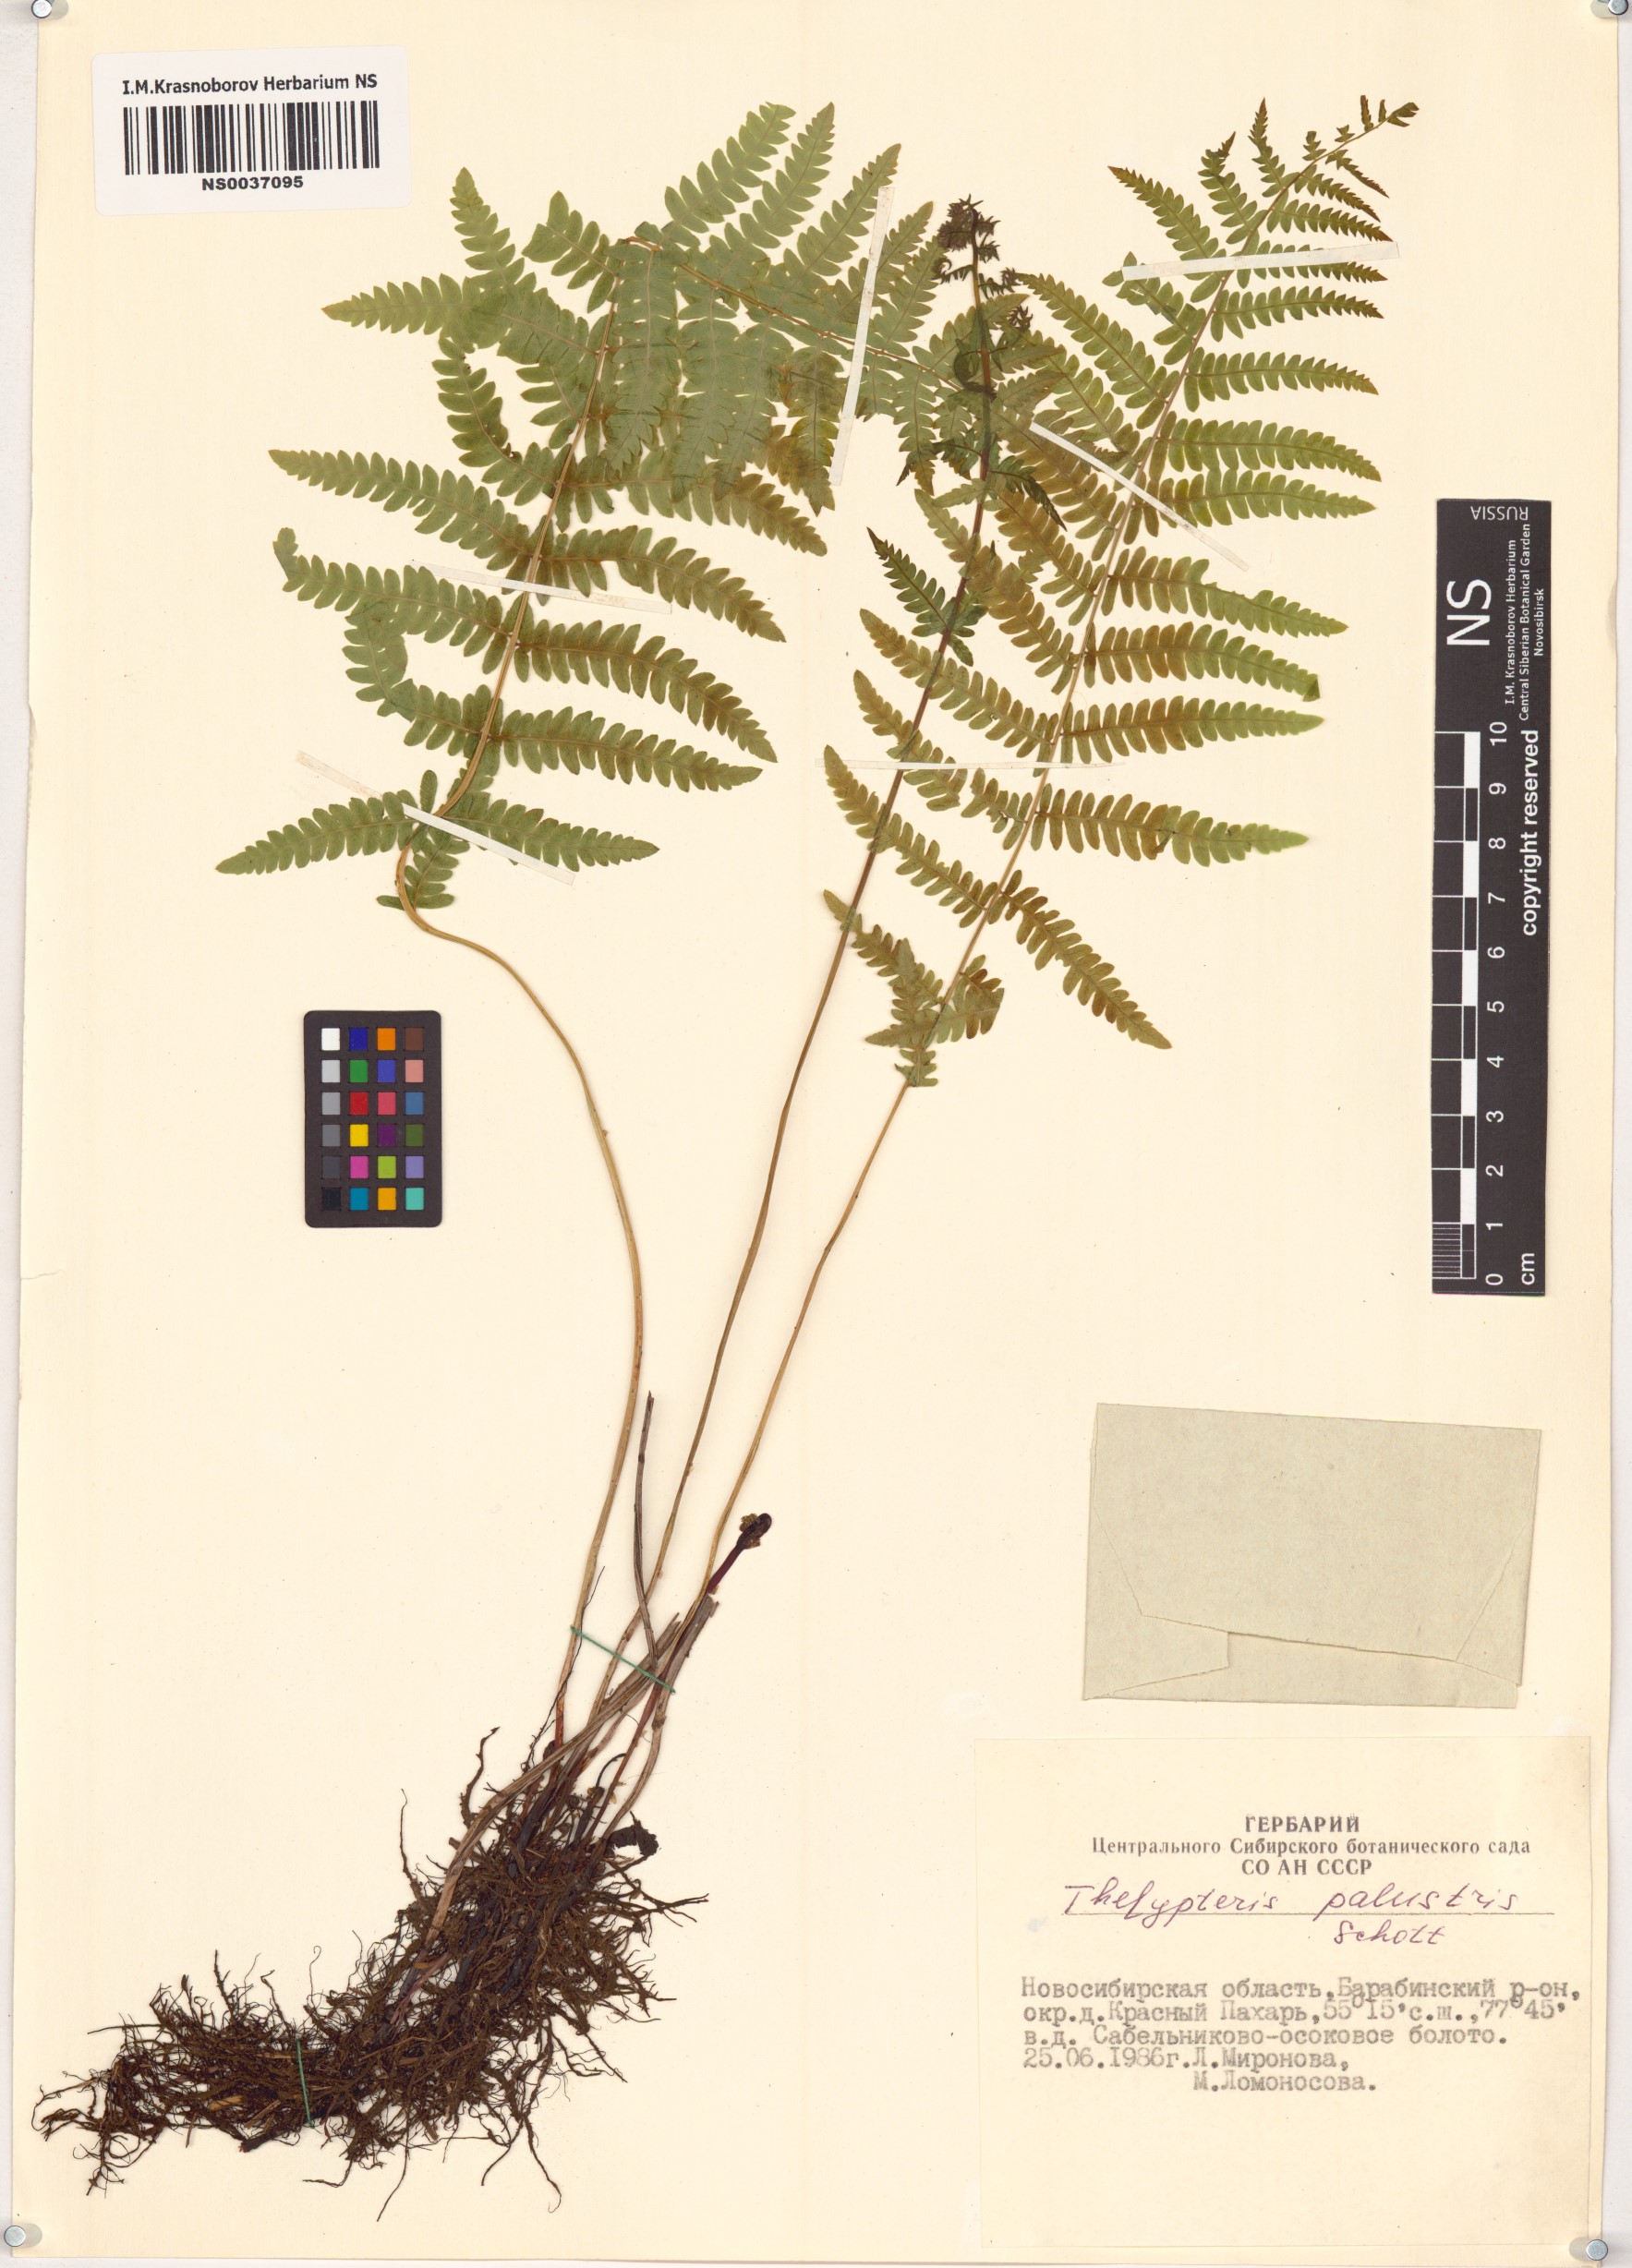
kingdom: Plantae
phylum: Tracheophyta
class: Polypodiopsida
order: Polypodiales
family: Thelypteridaceae
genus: Thelypteris
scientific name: Thelypteris palustris
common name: Marsh fern
